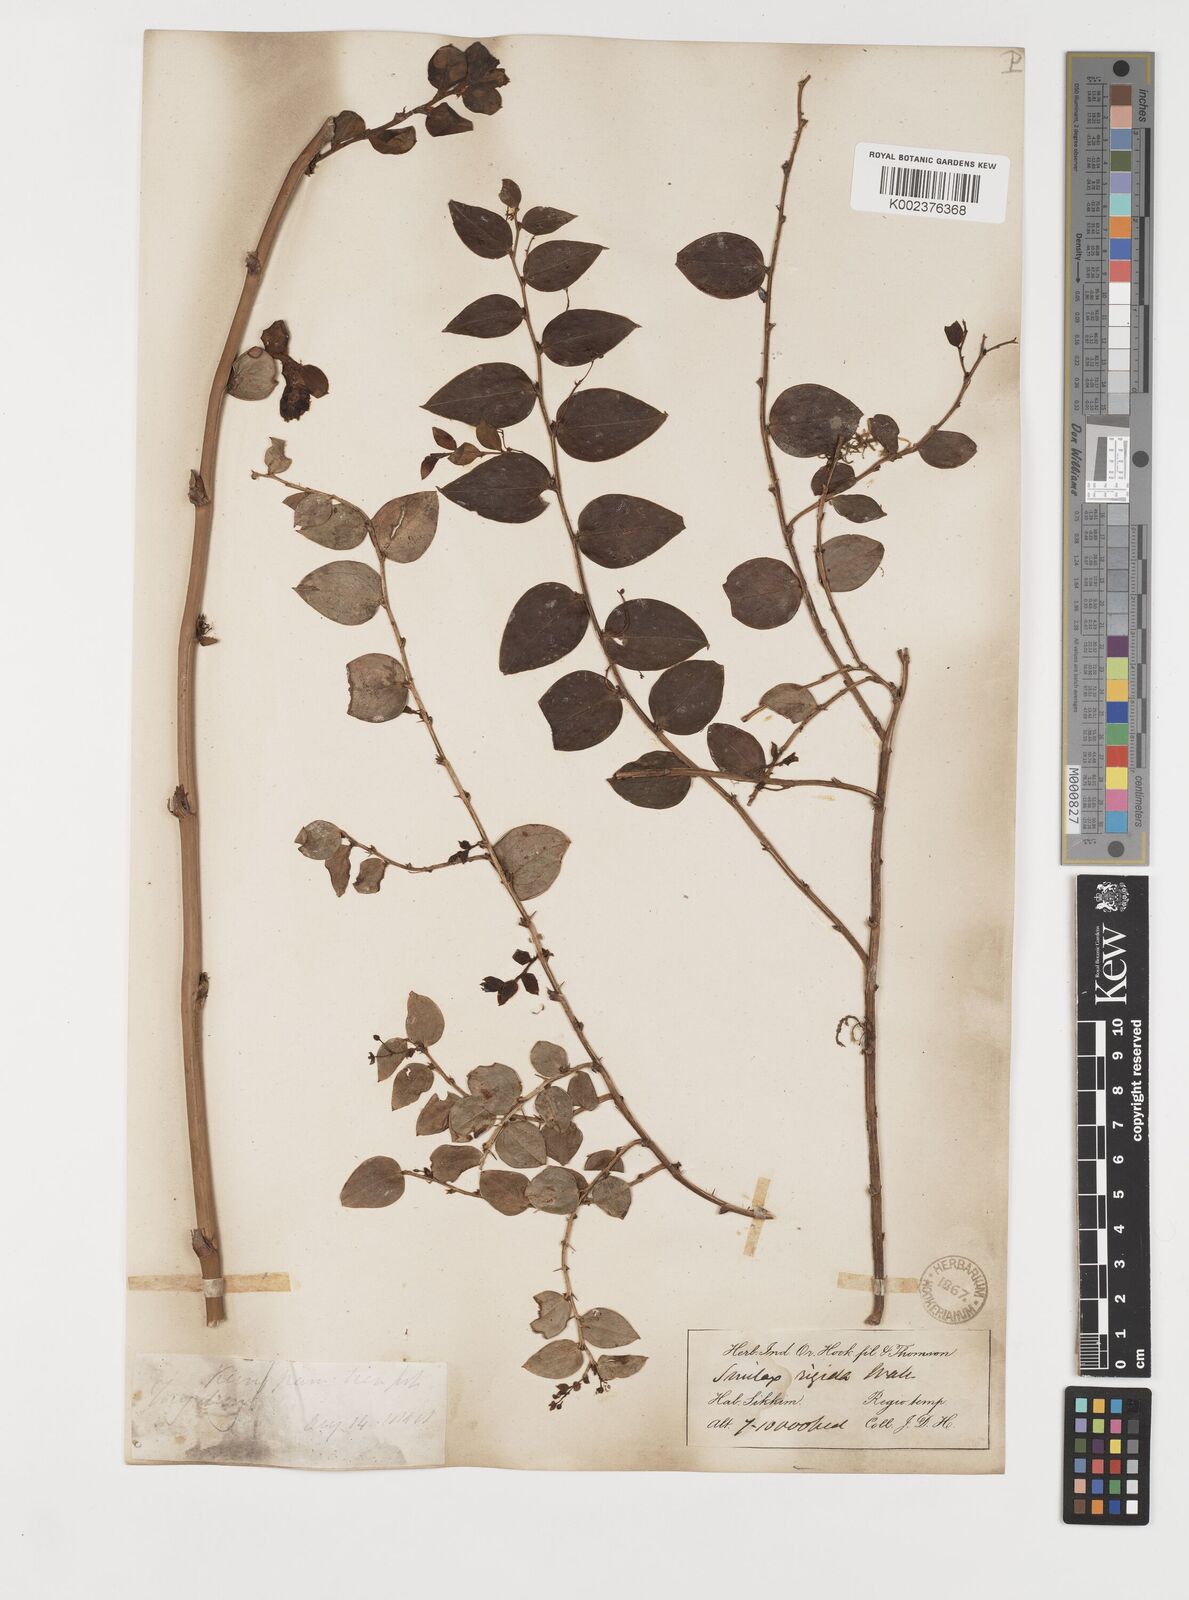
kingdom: Plantae
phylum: Tracheophyta
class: Liliopsida
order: Liliales
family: Smilacaceae
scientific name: Smilacaceae
